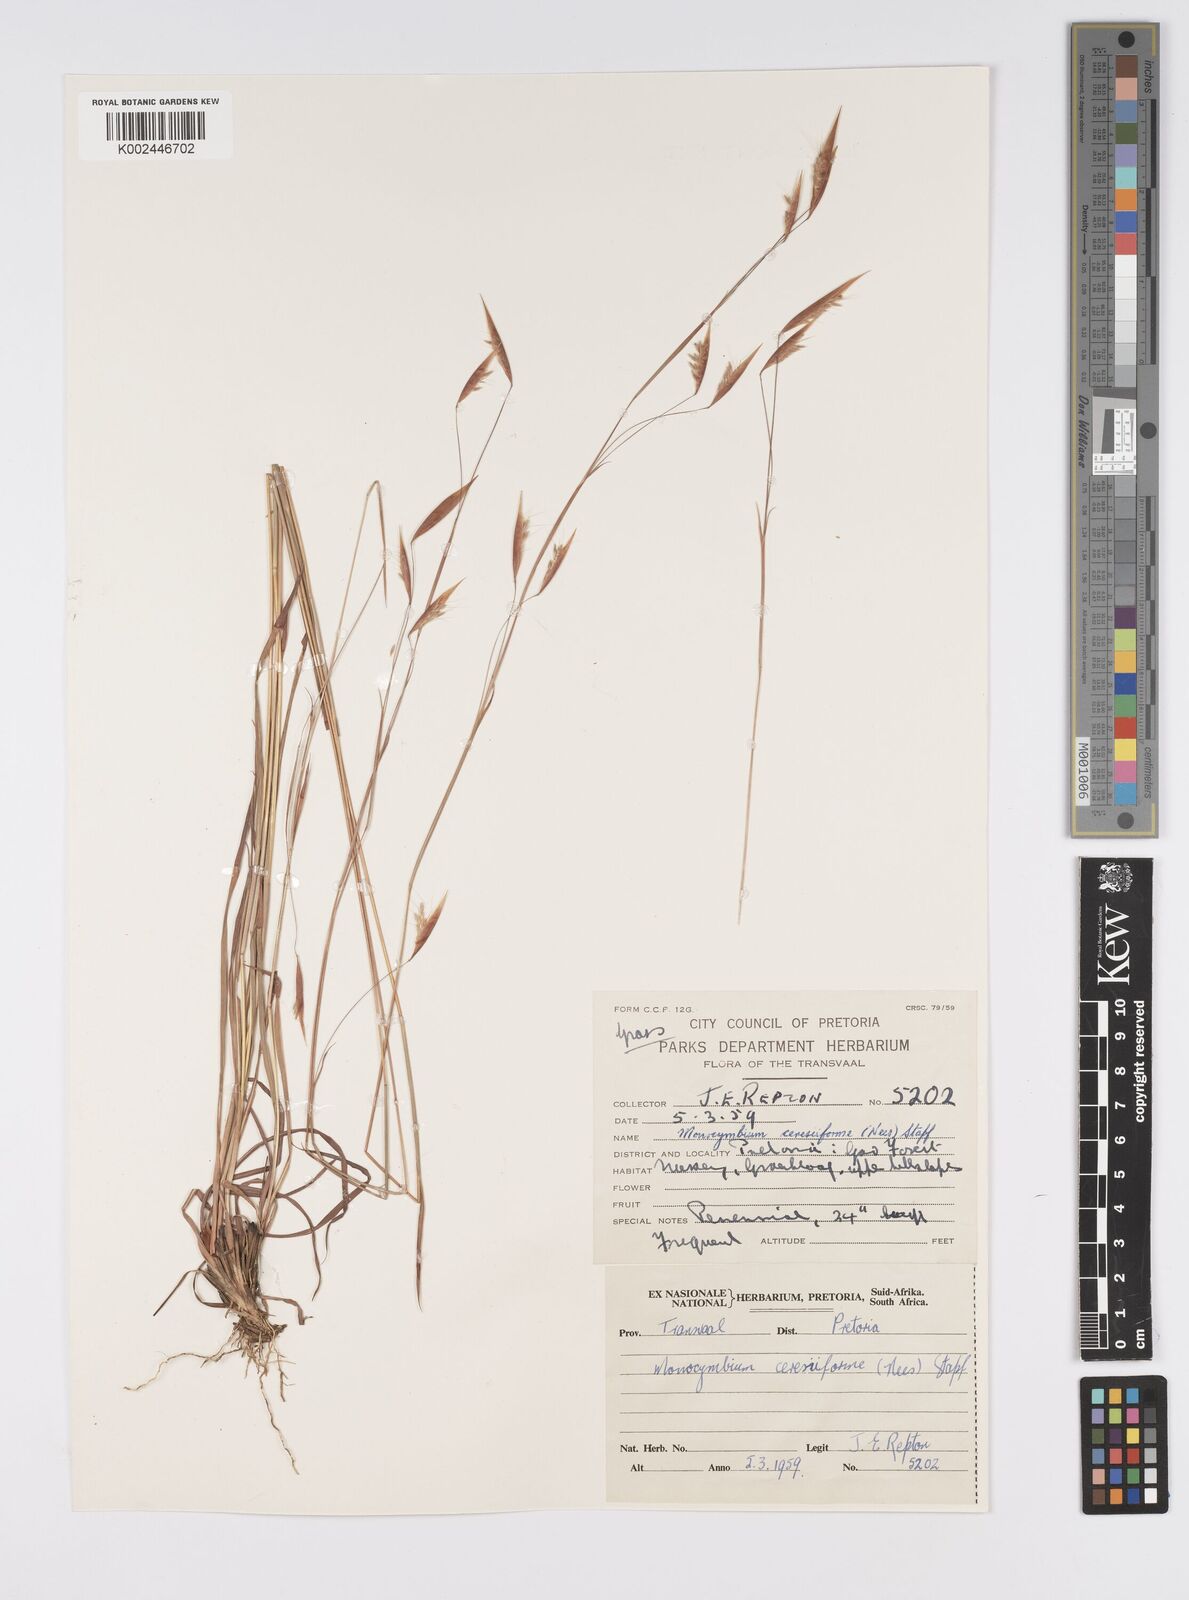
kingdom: Plantae
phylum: Tracheophyta
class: Liliopsida
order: Poales
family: Poaceae
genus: Monocymbium
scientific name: Monocymbium ceresiiforme
